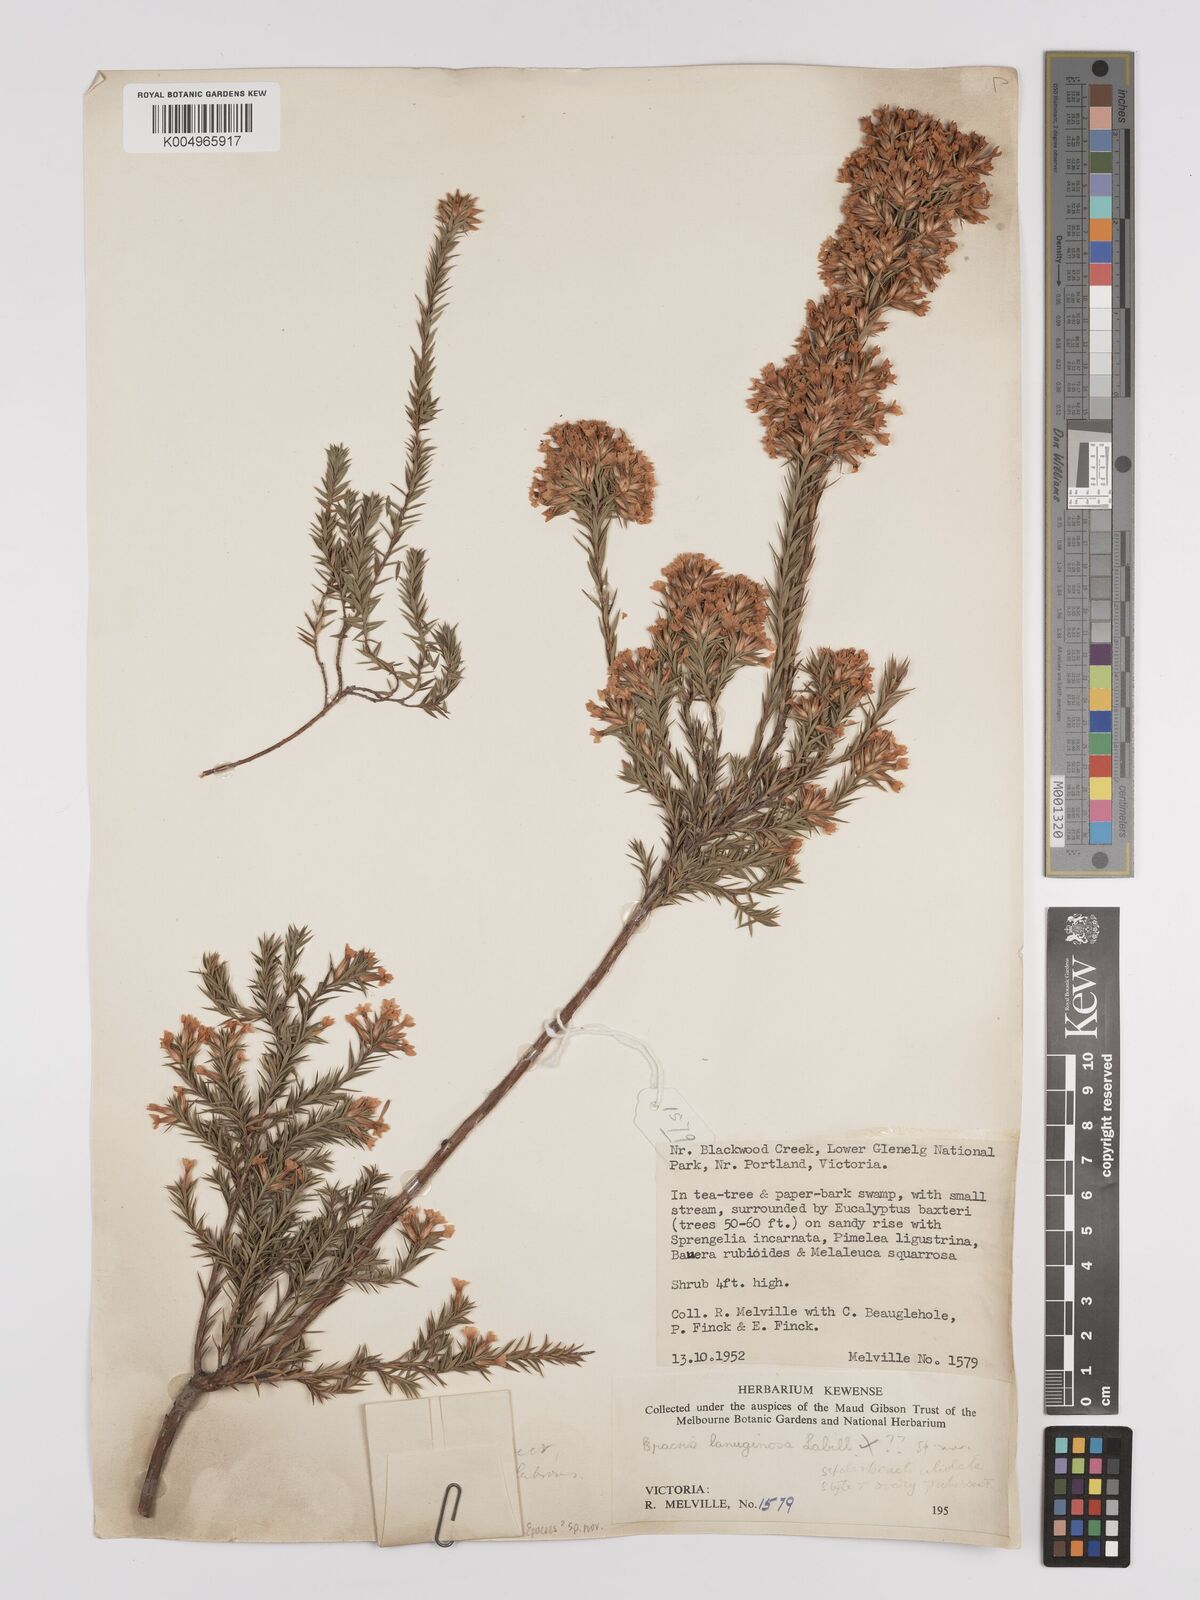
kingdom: Plantae
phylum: Tracheophyta
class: Magnoliopsida
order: Ericales
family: Ericaceae
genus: Epacris
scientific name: Epacris
